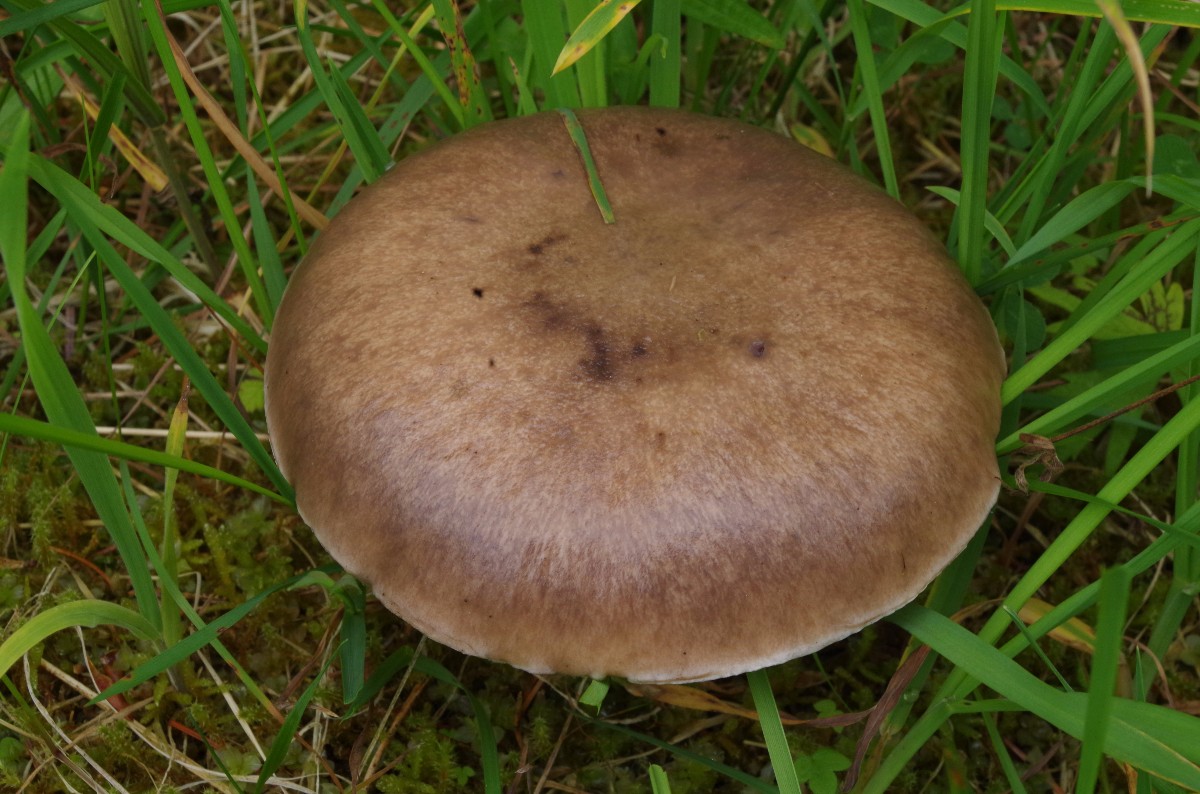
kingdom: Fungi
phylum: Basidiomycota
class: Agaricomycetes
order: Boletales
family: Gomphidiaceae
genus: Gomphidius
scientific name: Gomphidius glutinosus
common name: grå slimslør
